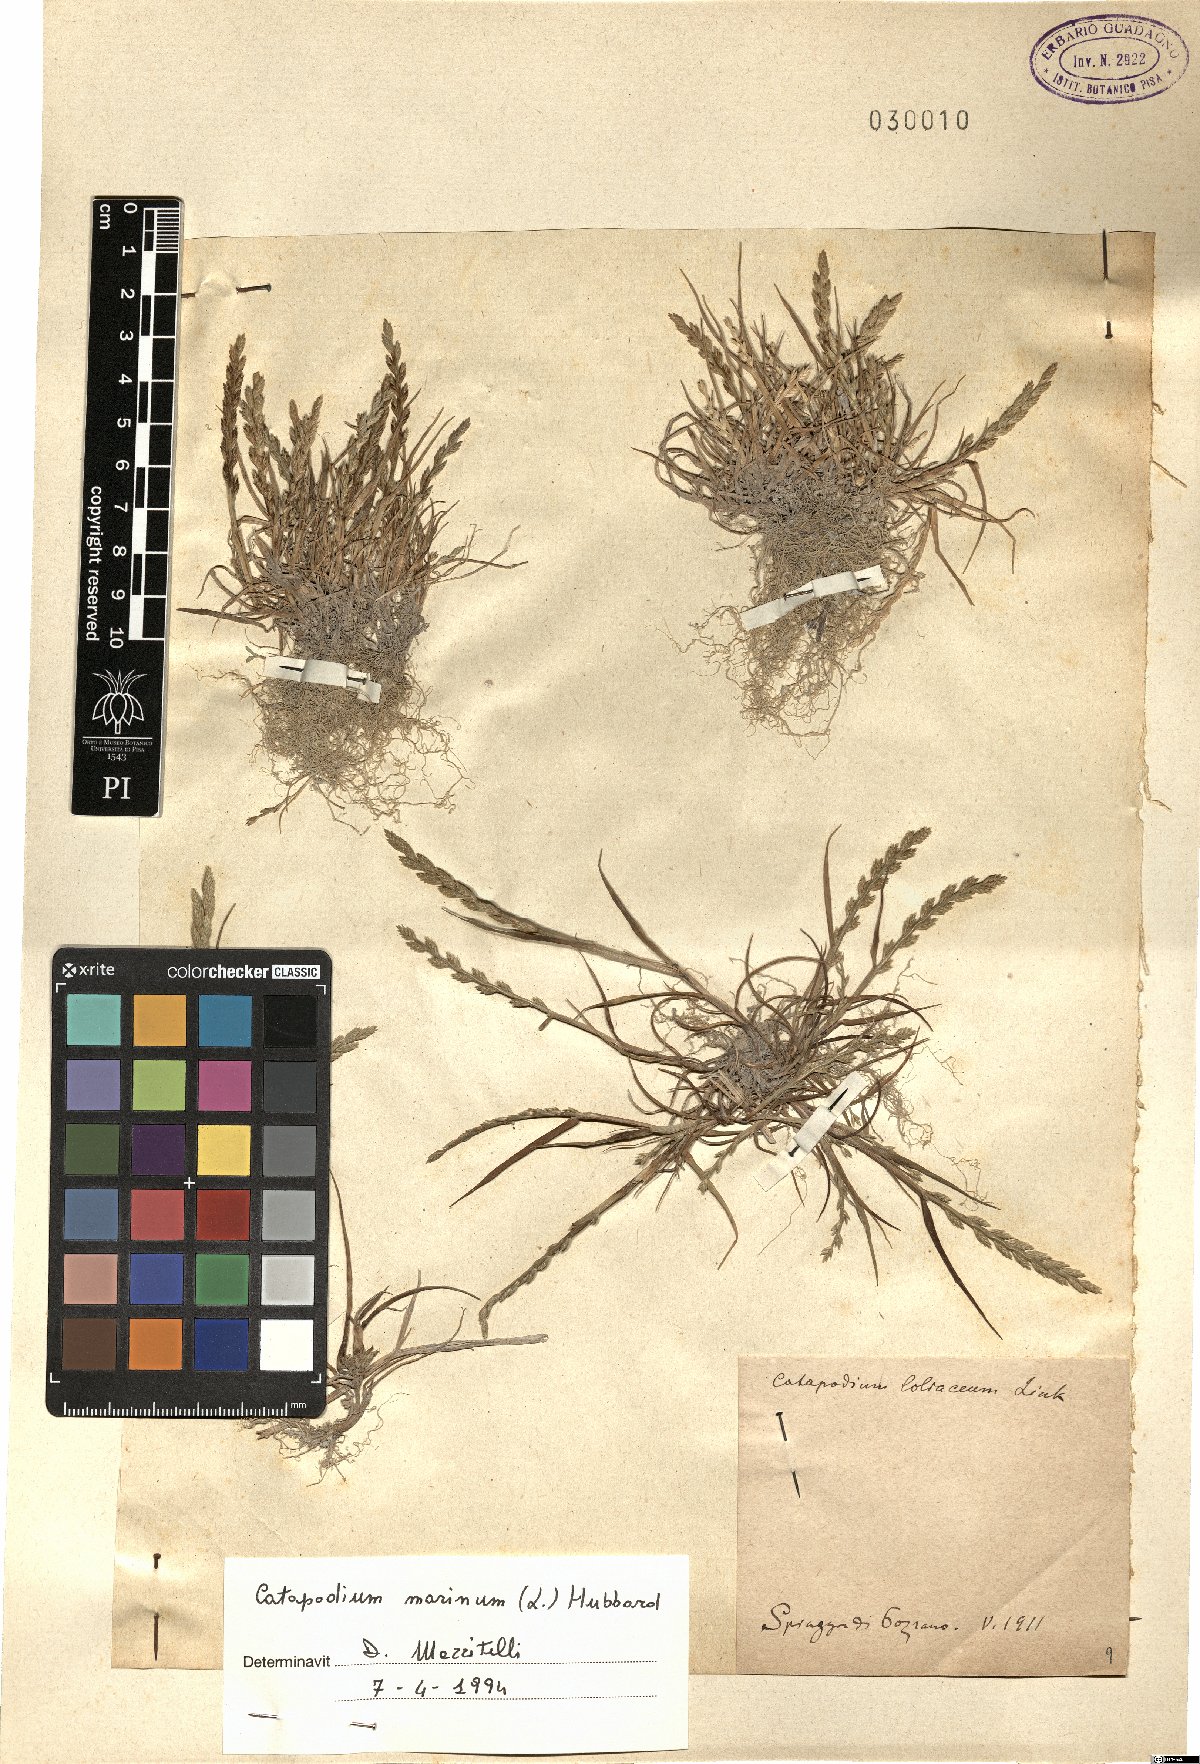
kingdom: Plantae
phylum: Tracheophyta
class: Liliopsida
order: Poales
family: Poaceae
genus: Catapodium
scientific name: Catapodium marinum
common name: Sea fern-grass
